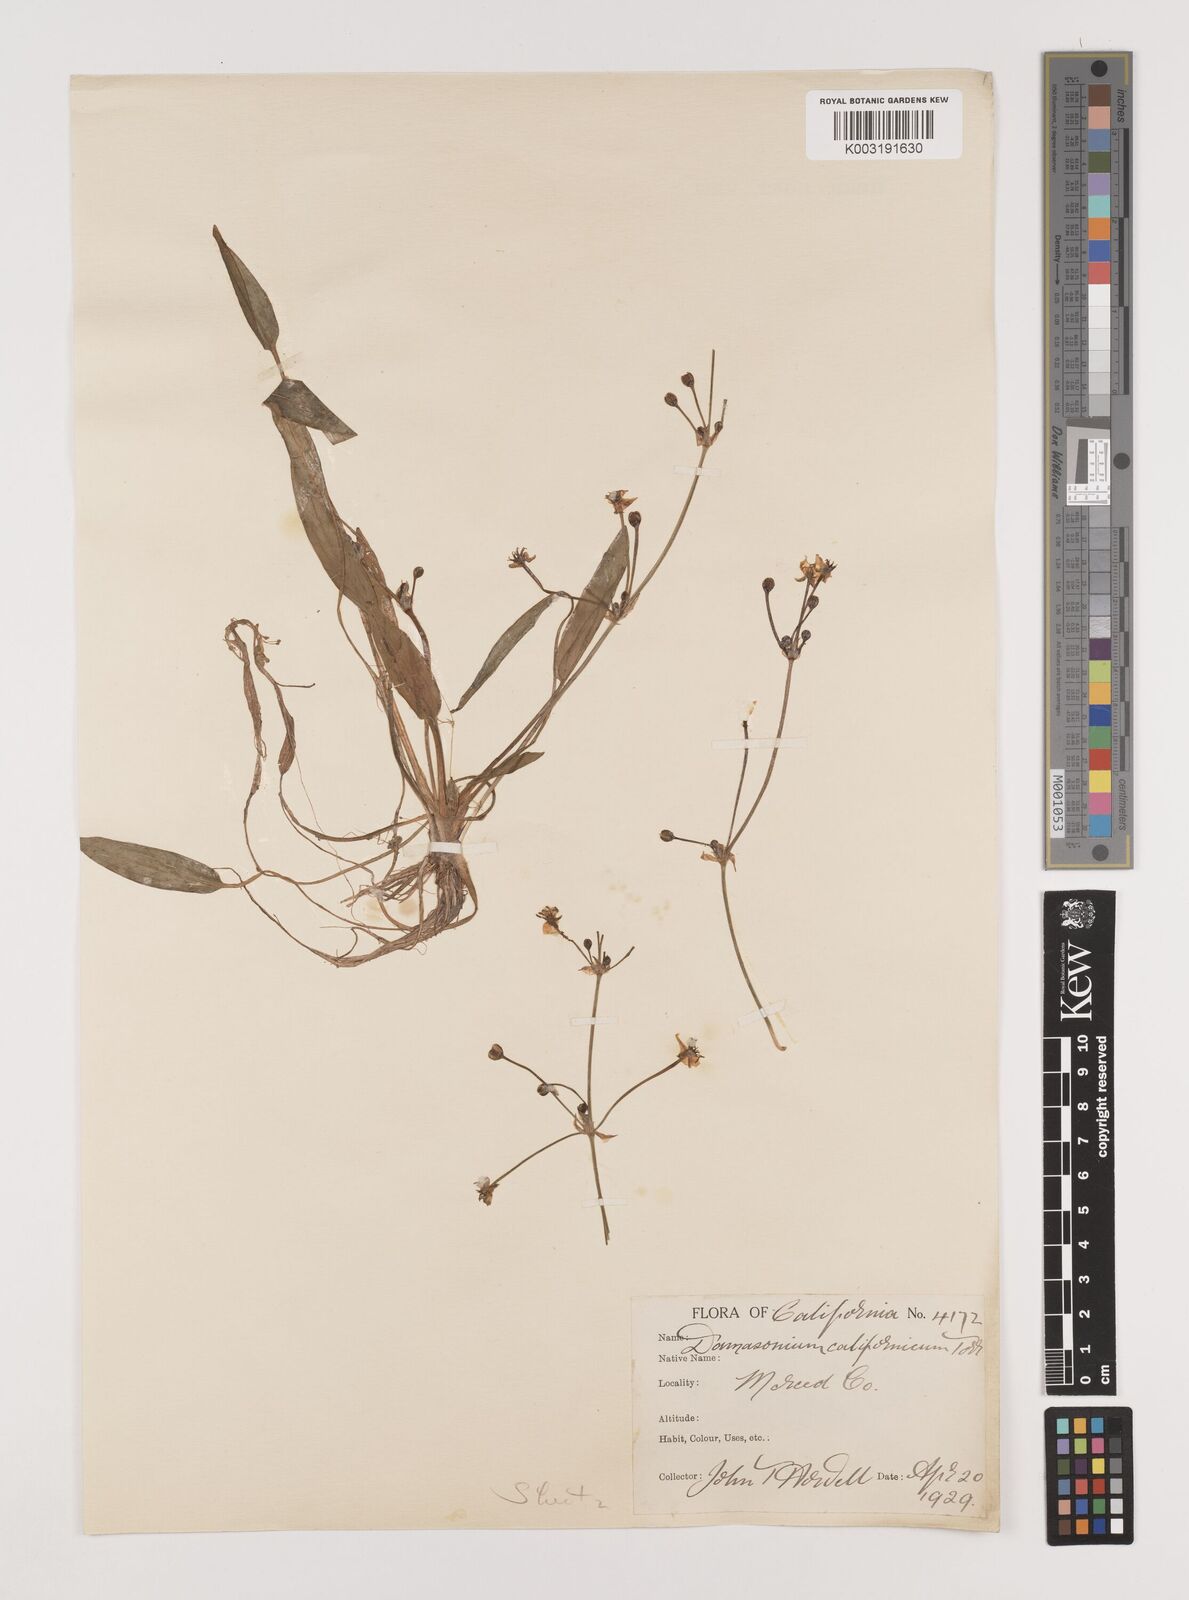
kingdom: Plantae
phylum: Tracheophyta
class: Liliopsida
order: Alismatales
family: Alismataceae
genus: Damasonium
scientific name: Damasonium
